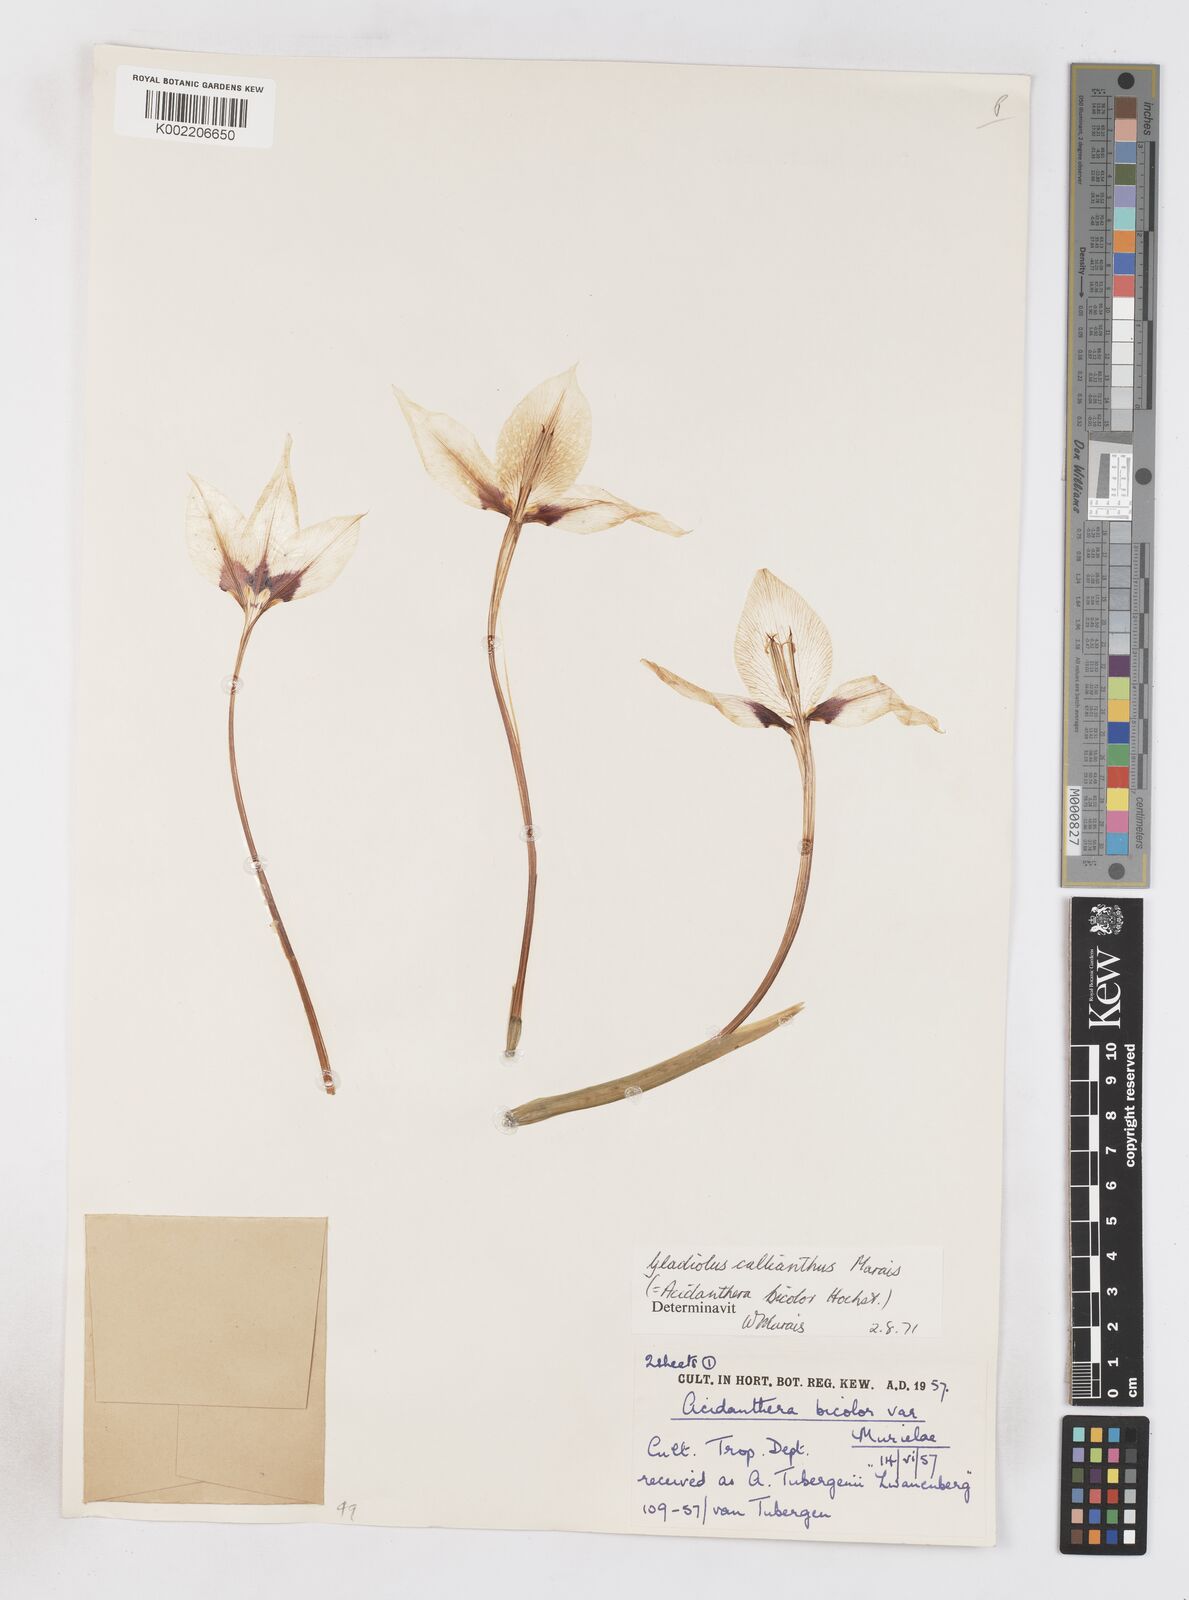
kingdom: Plantae
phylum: Tracheophyta
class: Liliopsida
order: Asparagales
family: Iridaceae
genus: Gladiolus
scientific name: Gladiolus murielae
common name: Acidanthera
